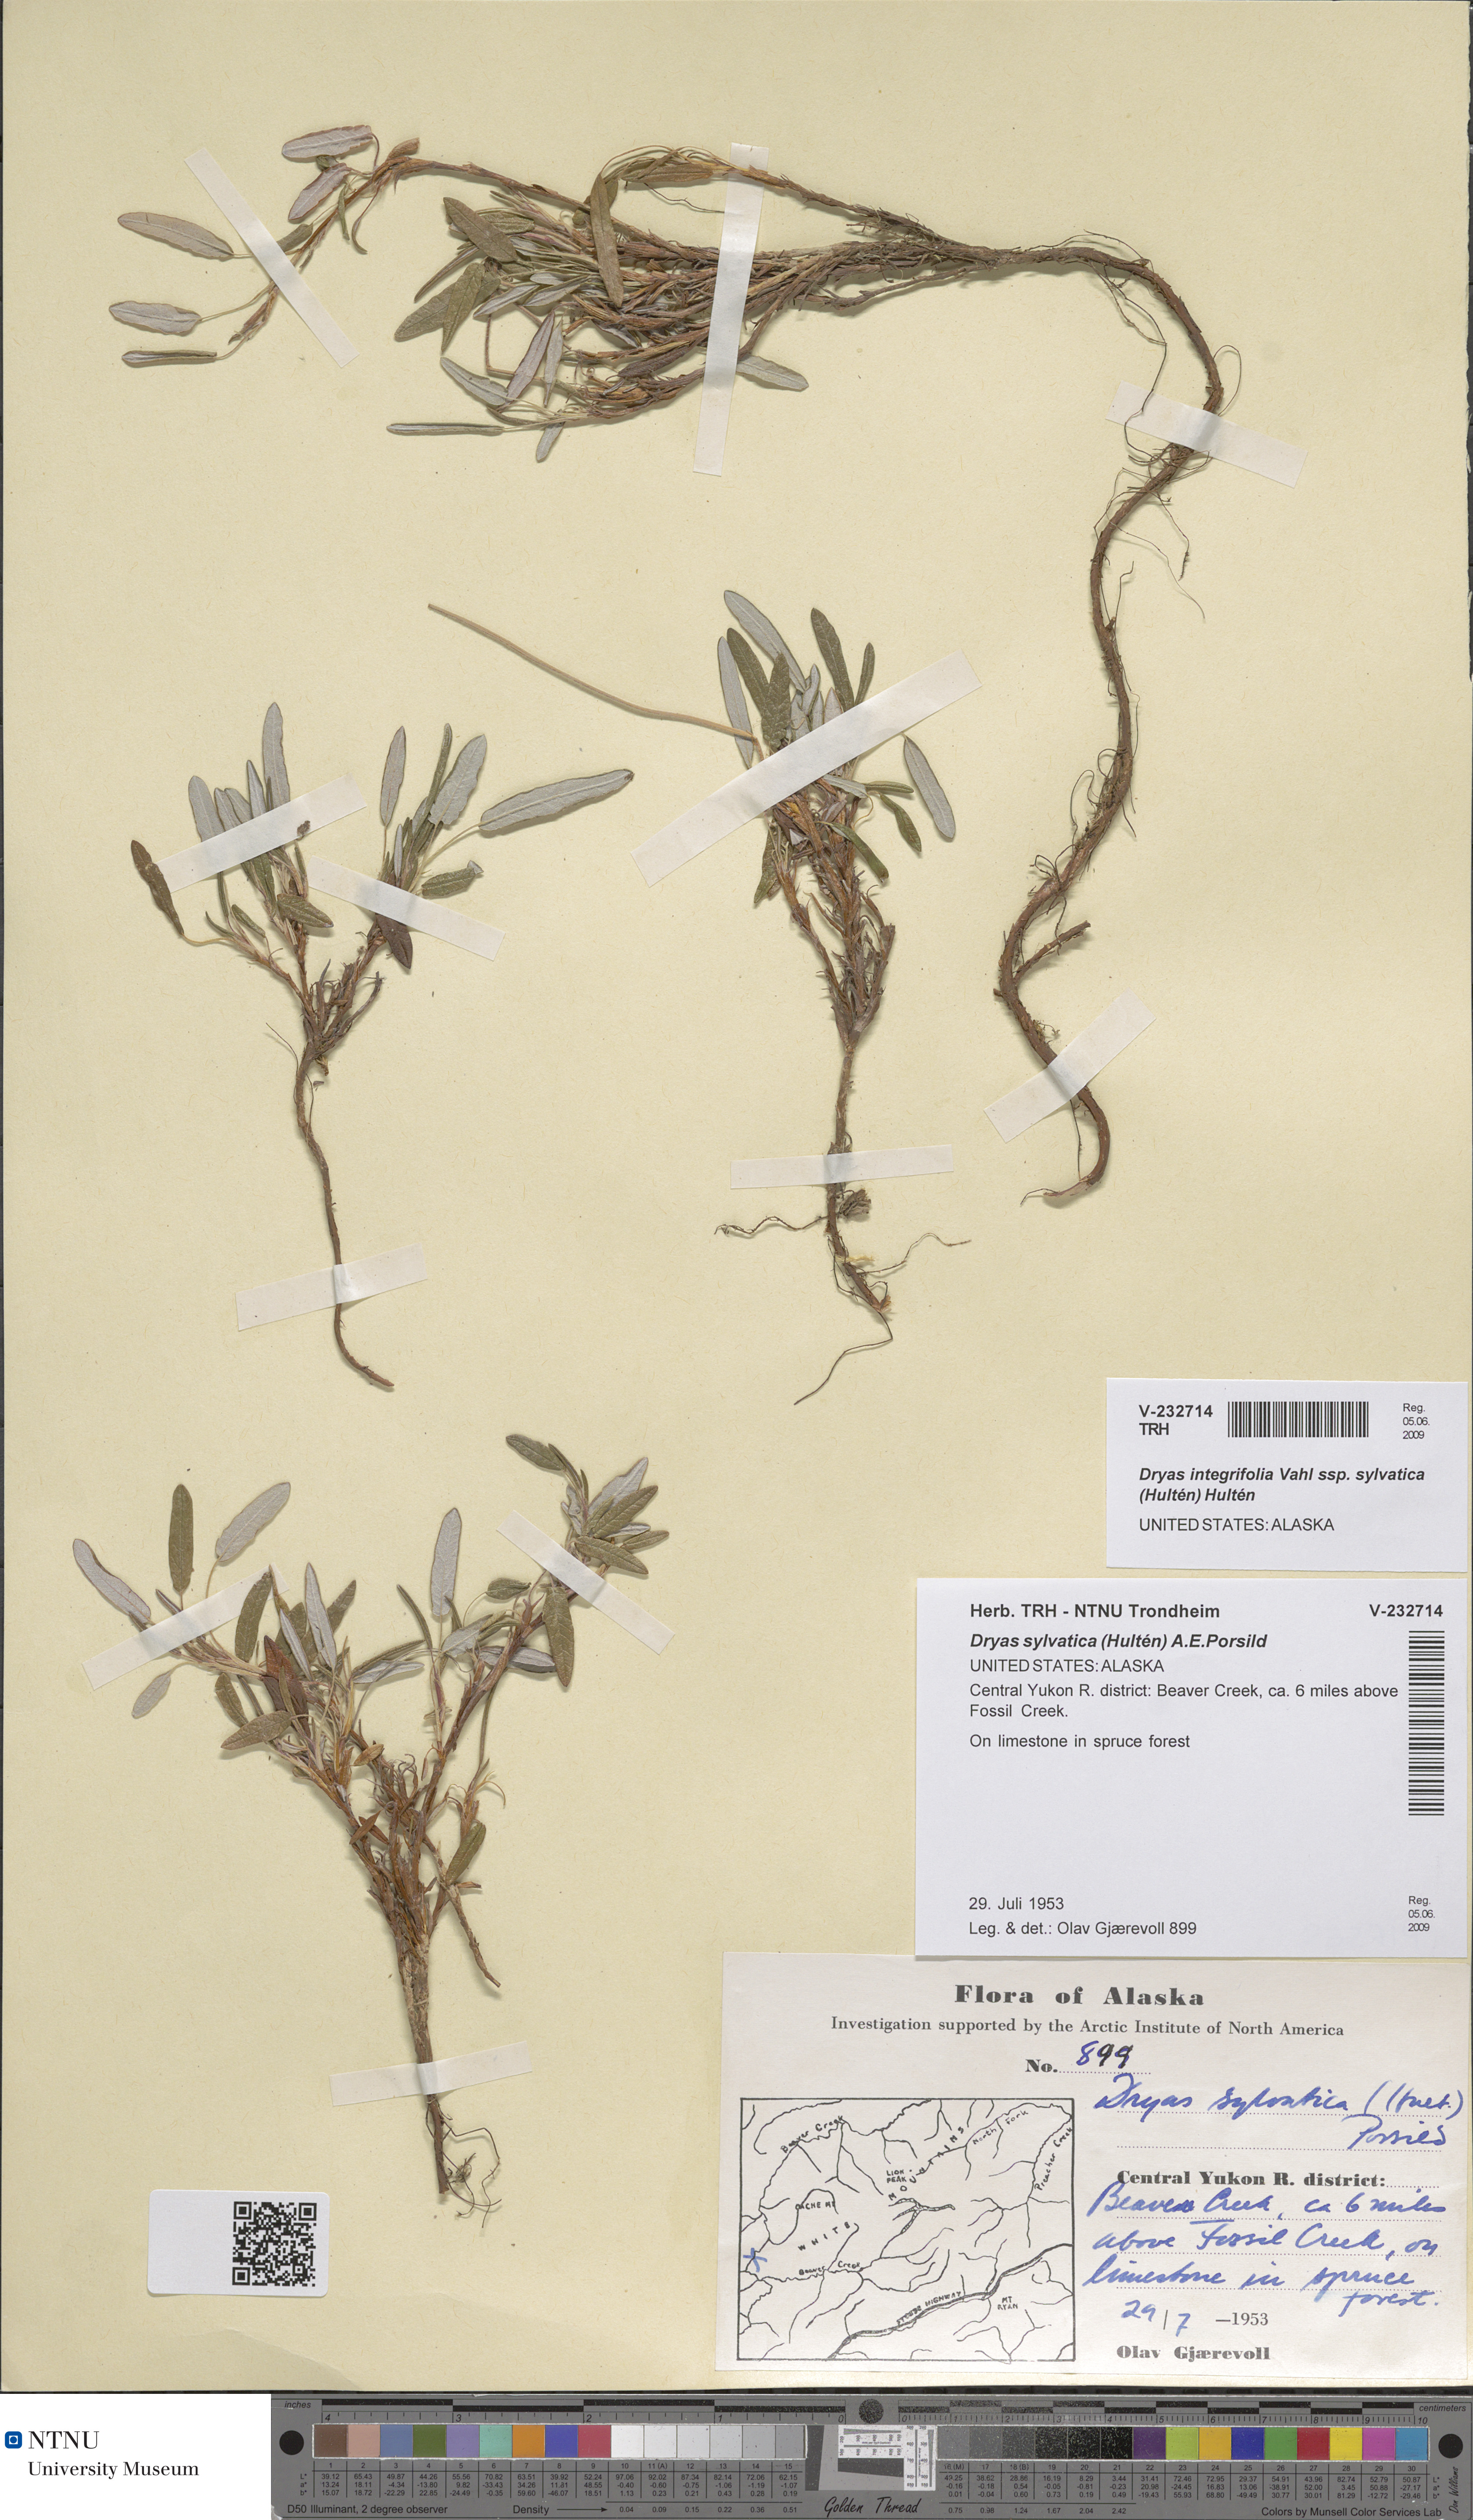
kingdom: Plantae
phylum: Tracheophyta
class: Magnoliopsida
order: Rosales
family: Rosaceae
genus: Dryas
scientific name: Dryas integrifolia
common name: Entire-leaved mountain avens
